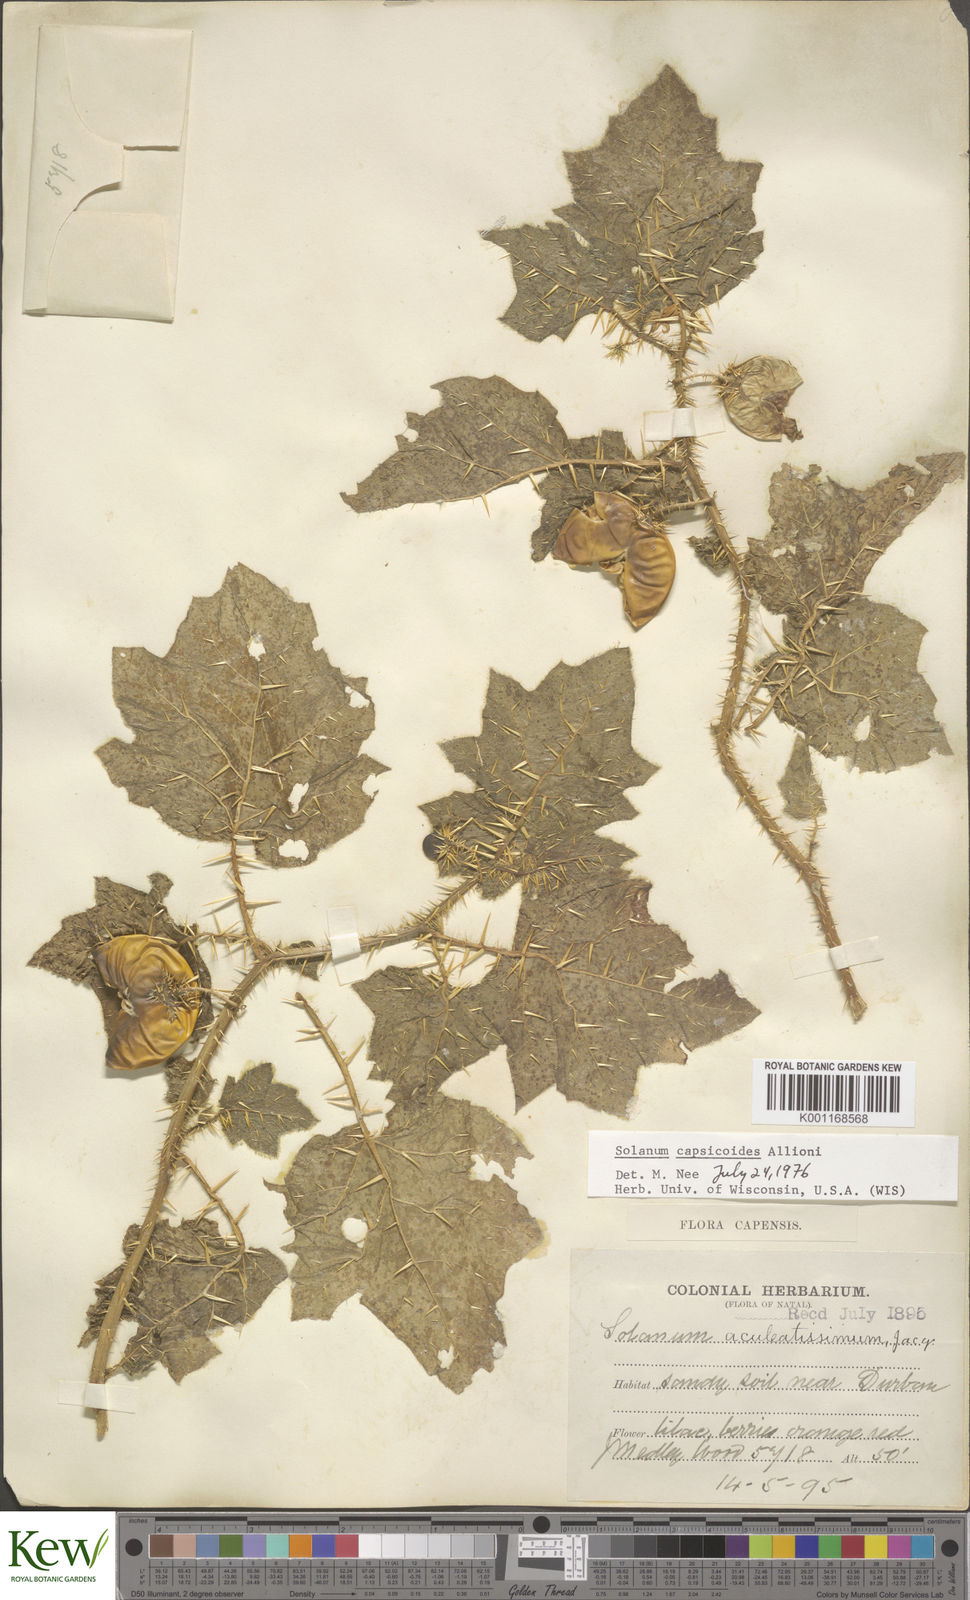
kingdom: Plantae
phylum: Tracheophyta
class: Magnoliopsida
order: Solanales
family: Solanaceae
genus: Solanum
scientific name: Solanum capsicoides
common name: Cockroach berry
